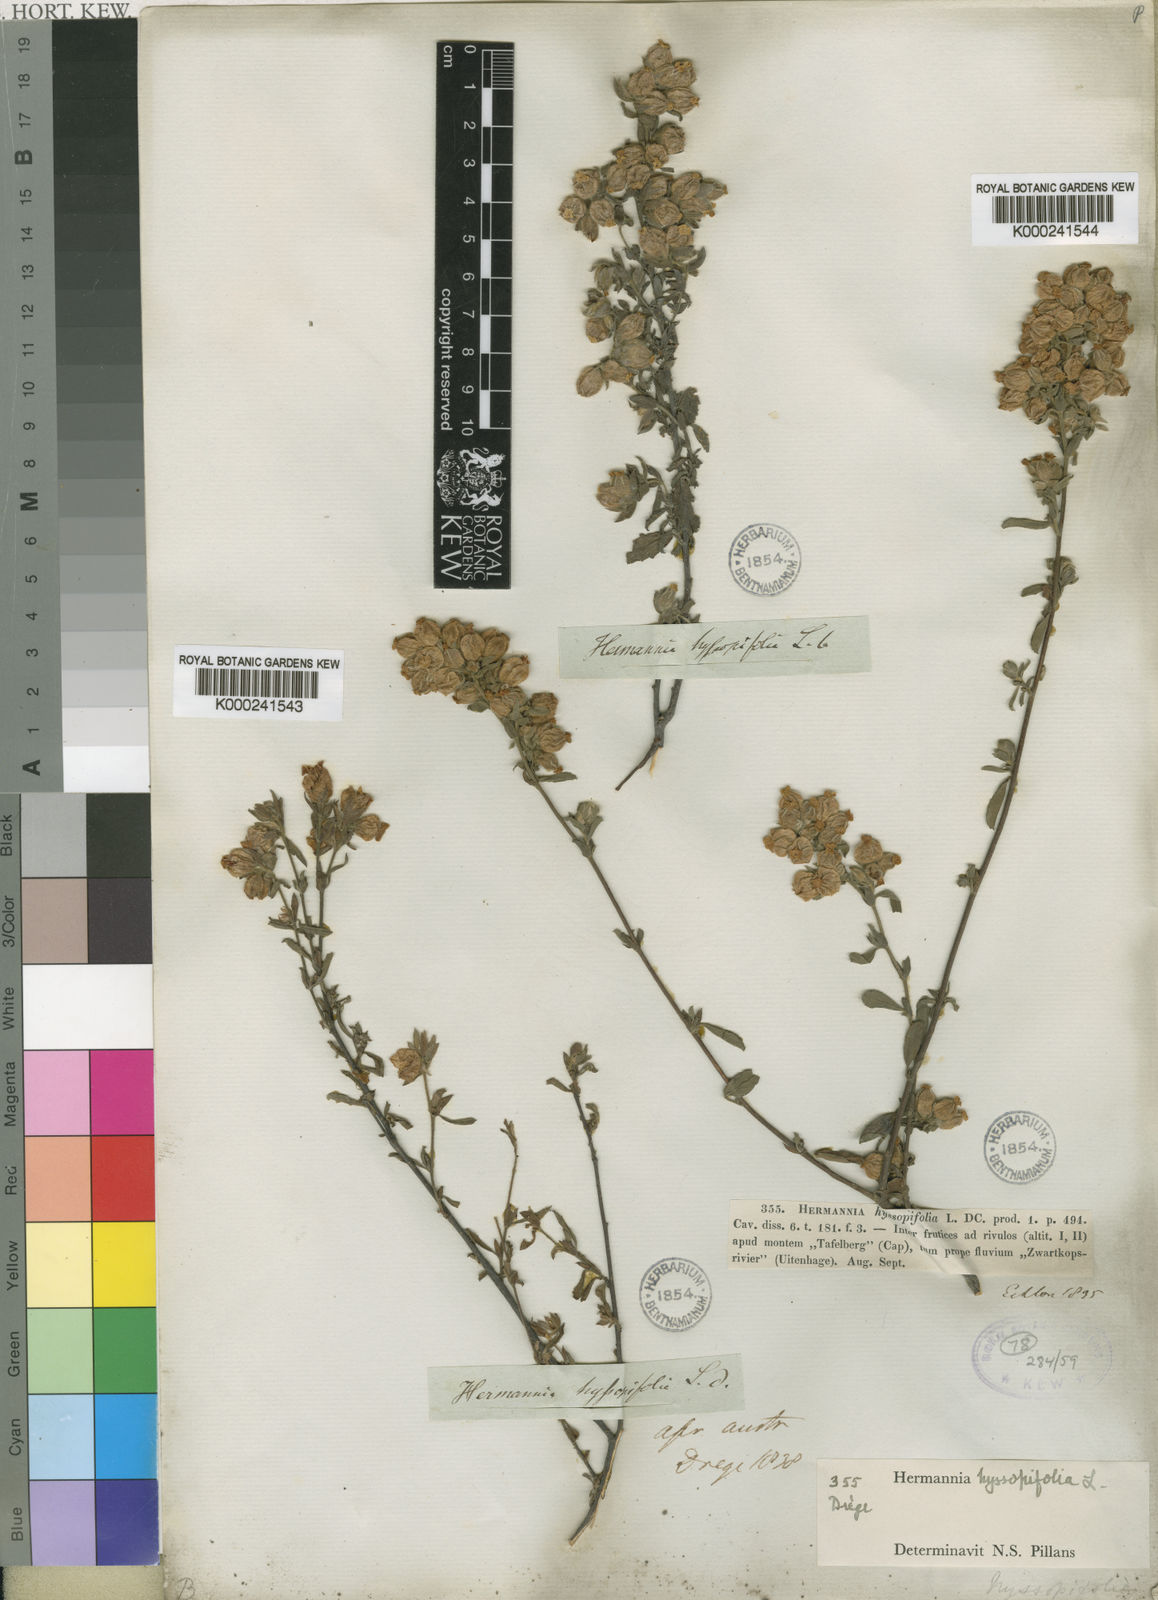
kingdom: Plantae
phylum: Tracheophyta
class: Magnoliopsida
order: Malvales
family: Malvaceae
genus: Hermannia
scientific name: Hermannia hyssopifolia
